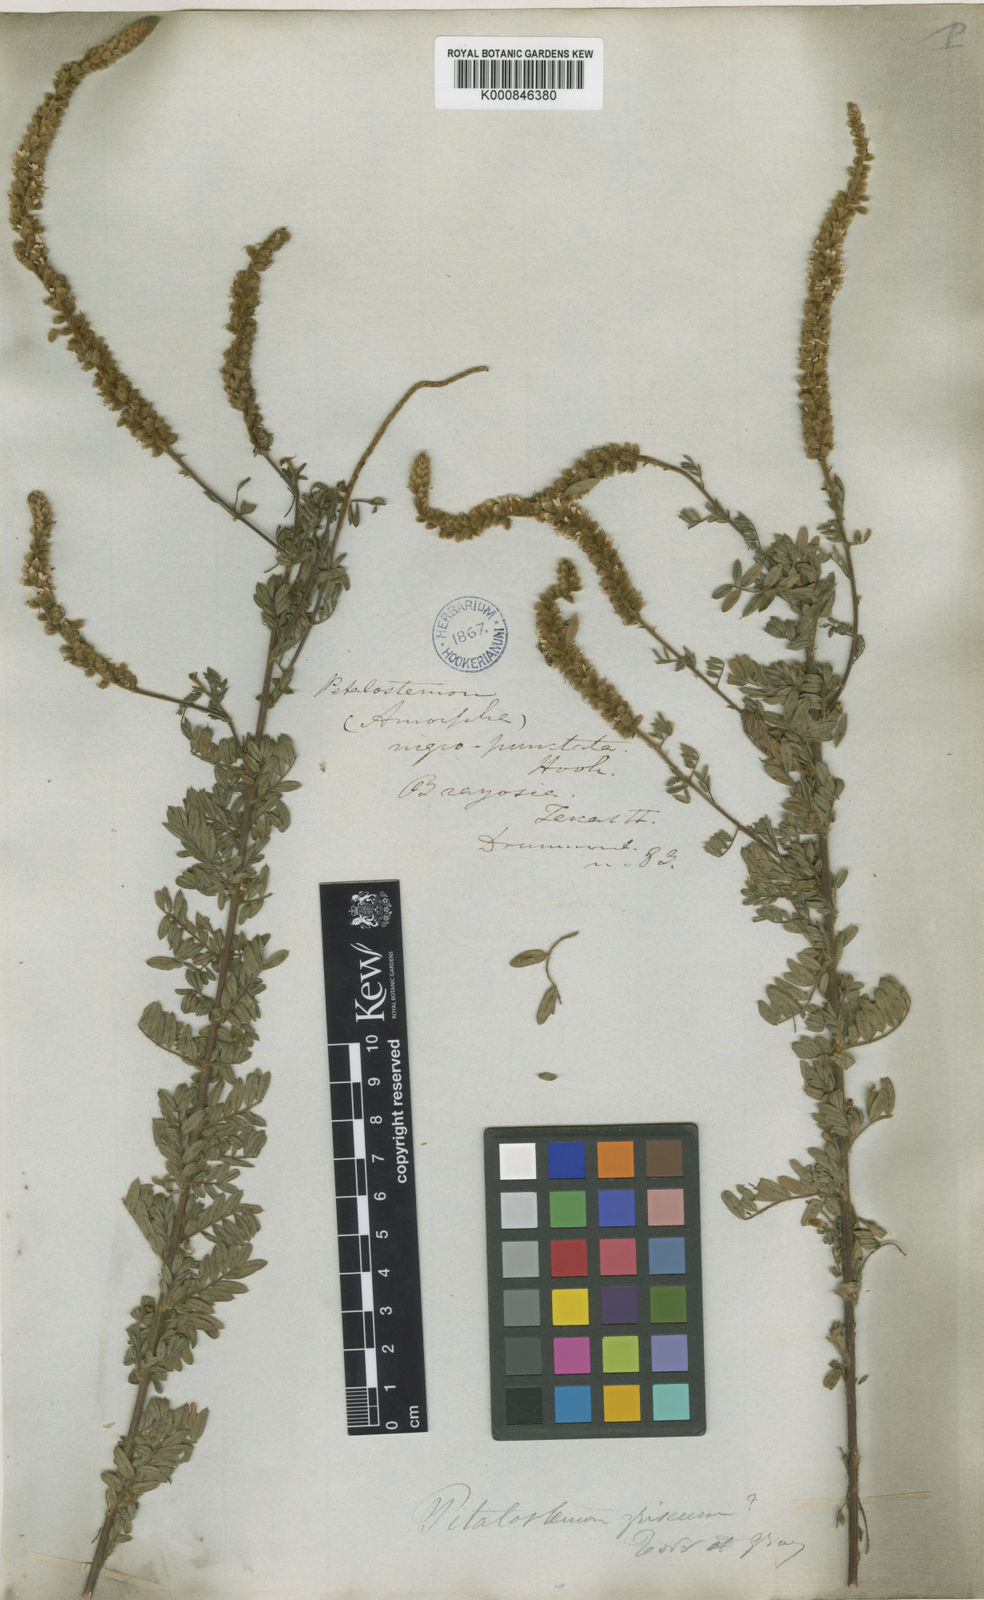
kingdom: Plantae
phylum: Tracheophyta
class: Magnoliopsida
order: Fabales
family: Fabaceae
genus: Dalea
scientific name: Dalea villosa
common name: Silky prairie-clover
